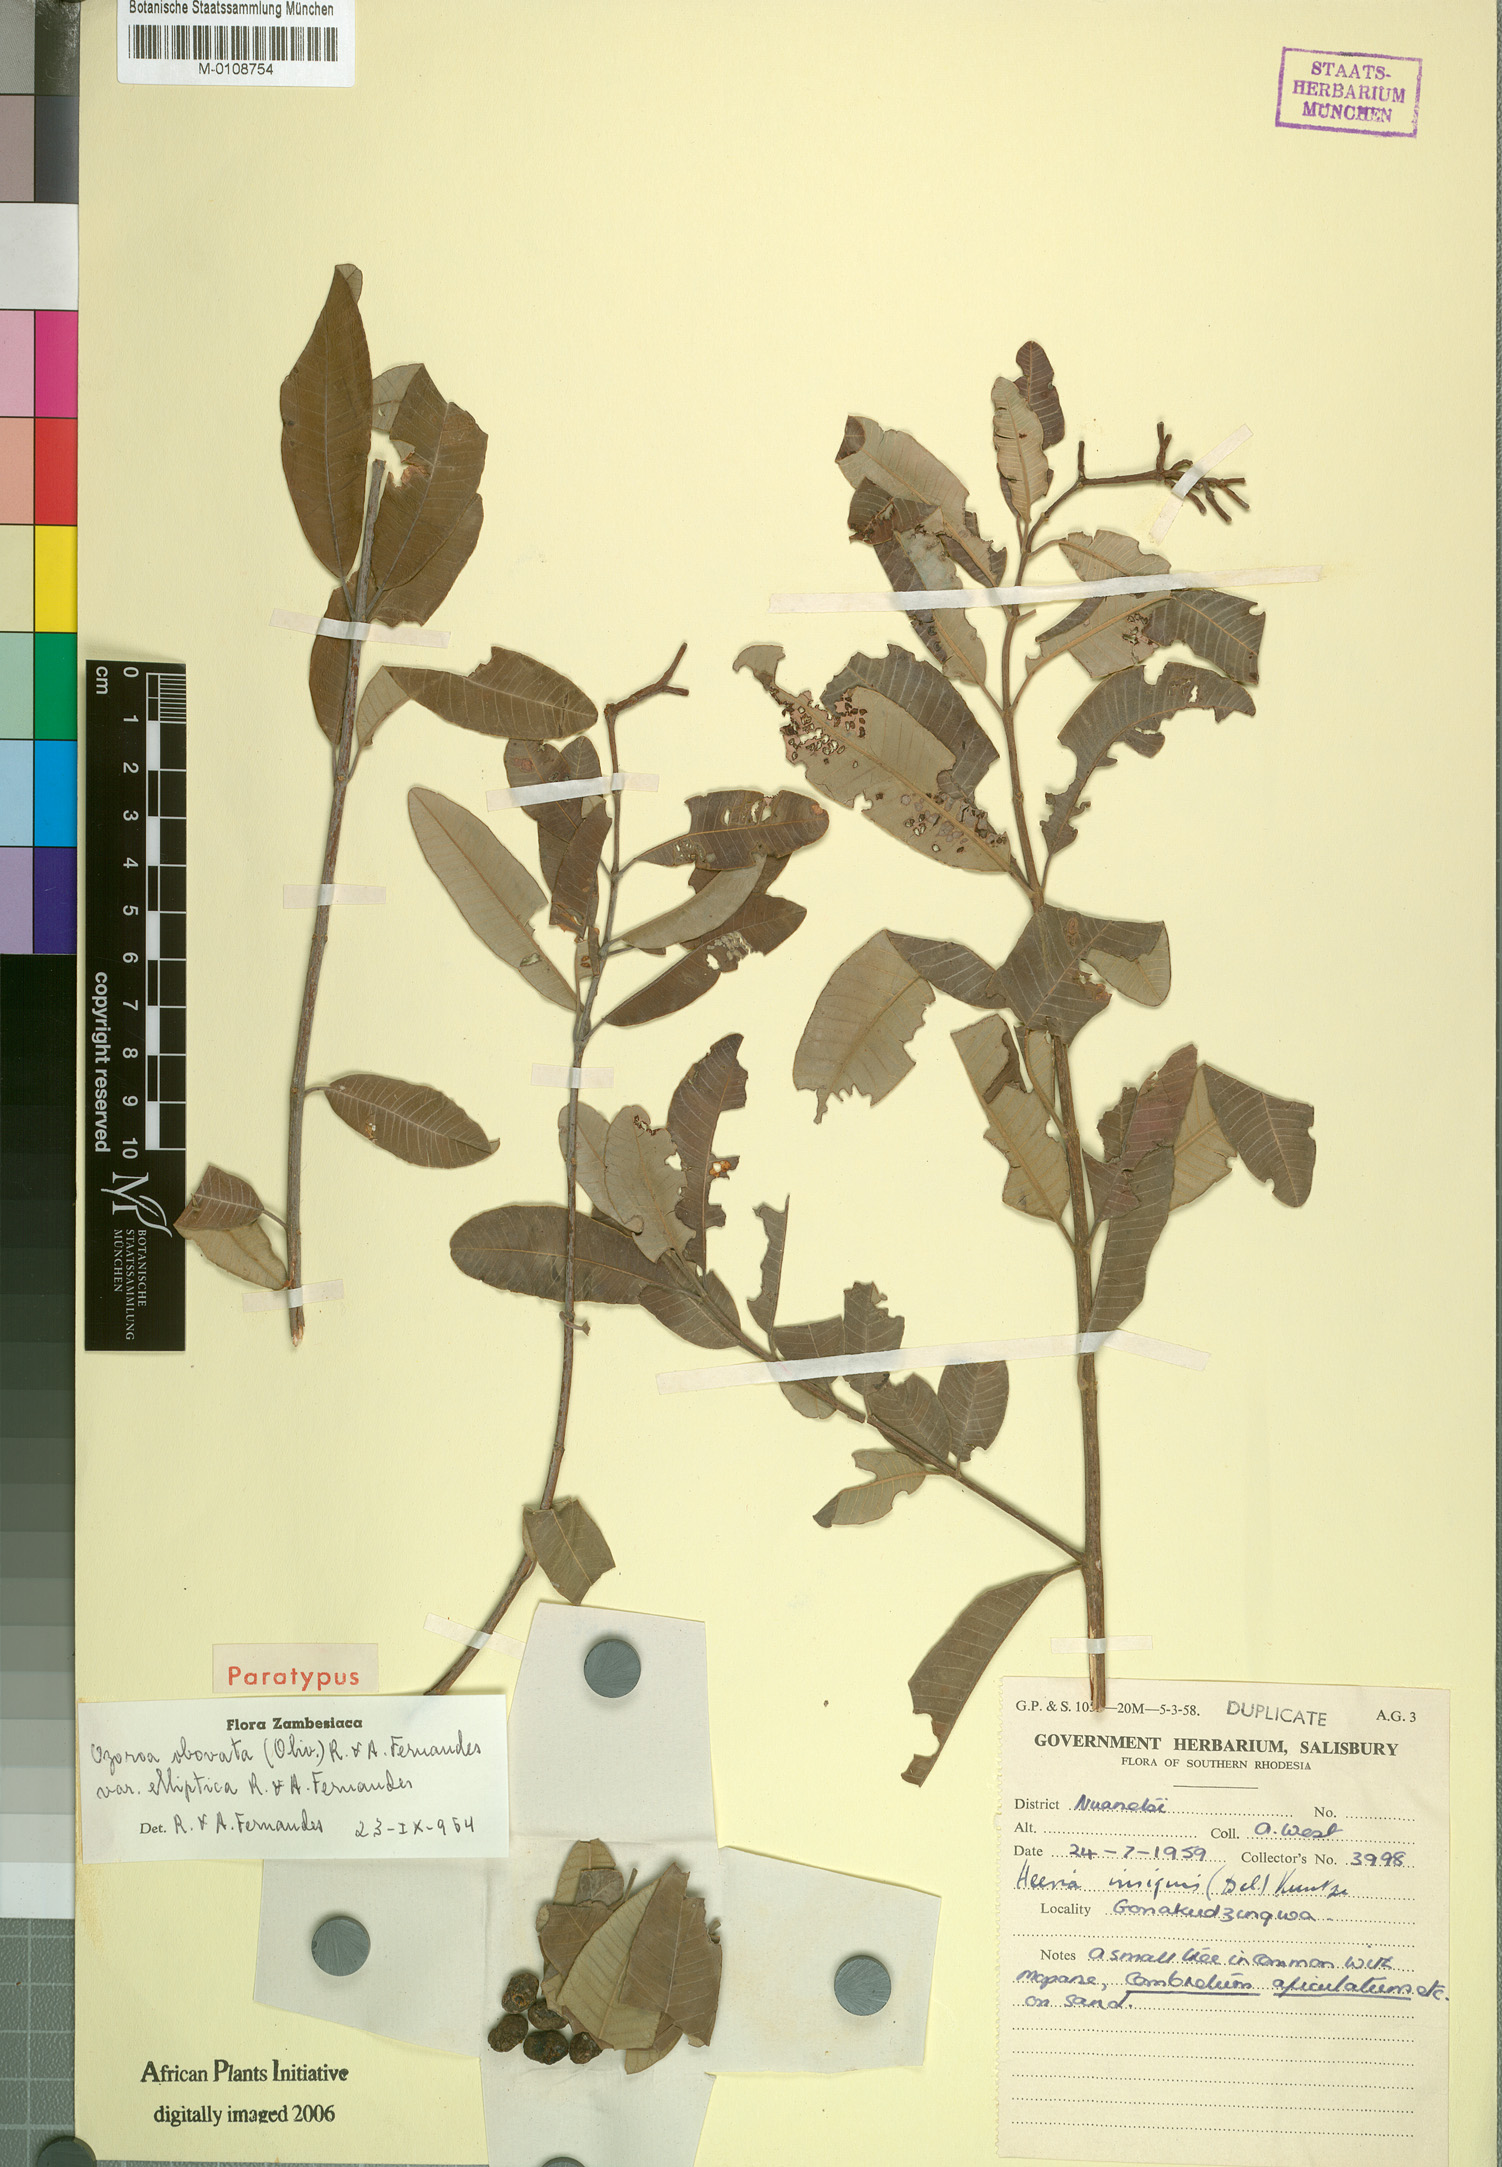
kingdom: Plantae
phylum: Tracheophyta
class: Magnoliopsida
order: Sapindales
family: Anacardiaceae
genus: Ozoroa
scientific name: Ozoroa obovata
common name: Broad-leaved resin tree
